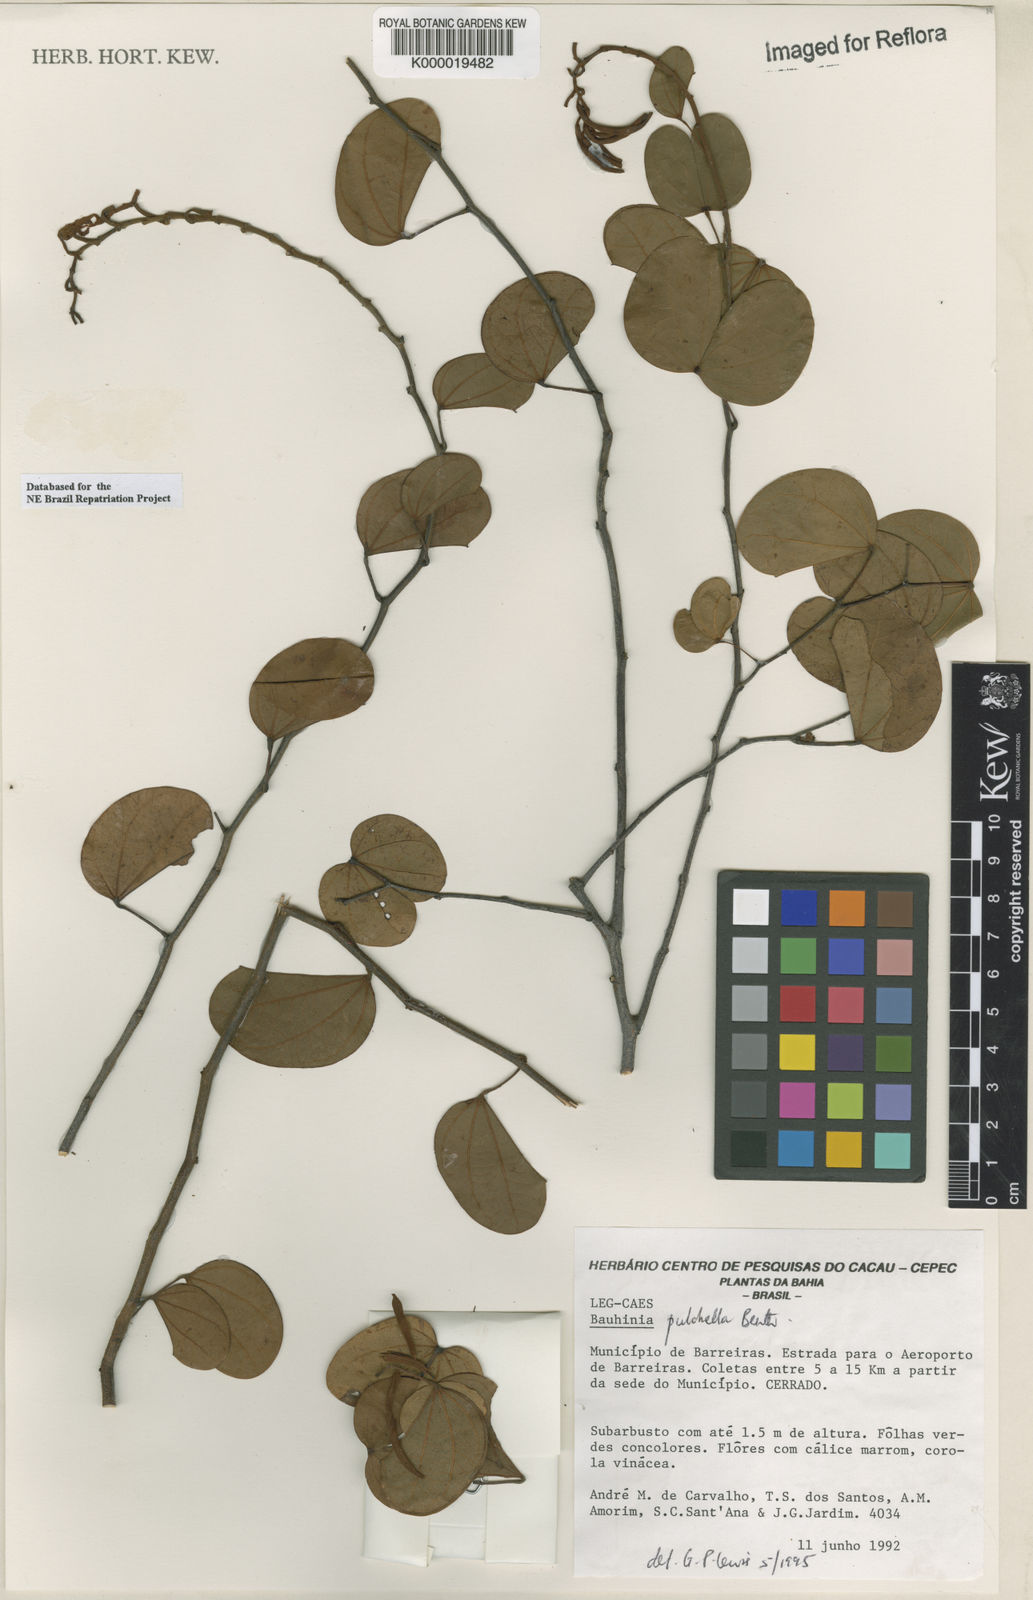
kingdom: Plantae
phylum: Tracheophyta
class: Magnoliopsida
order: Fabales
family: Fabaceae
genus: Bauhinia
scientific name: Bauhinia pulchella
